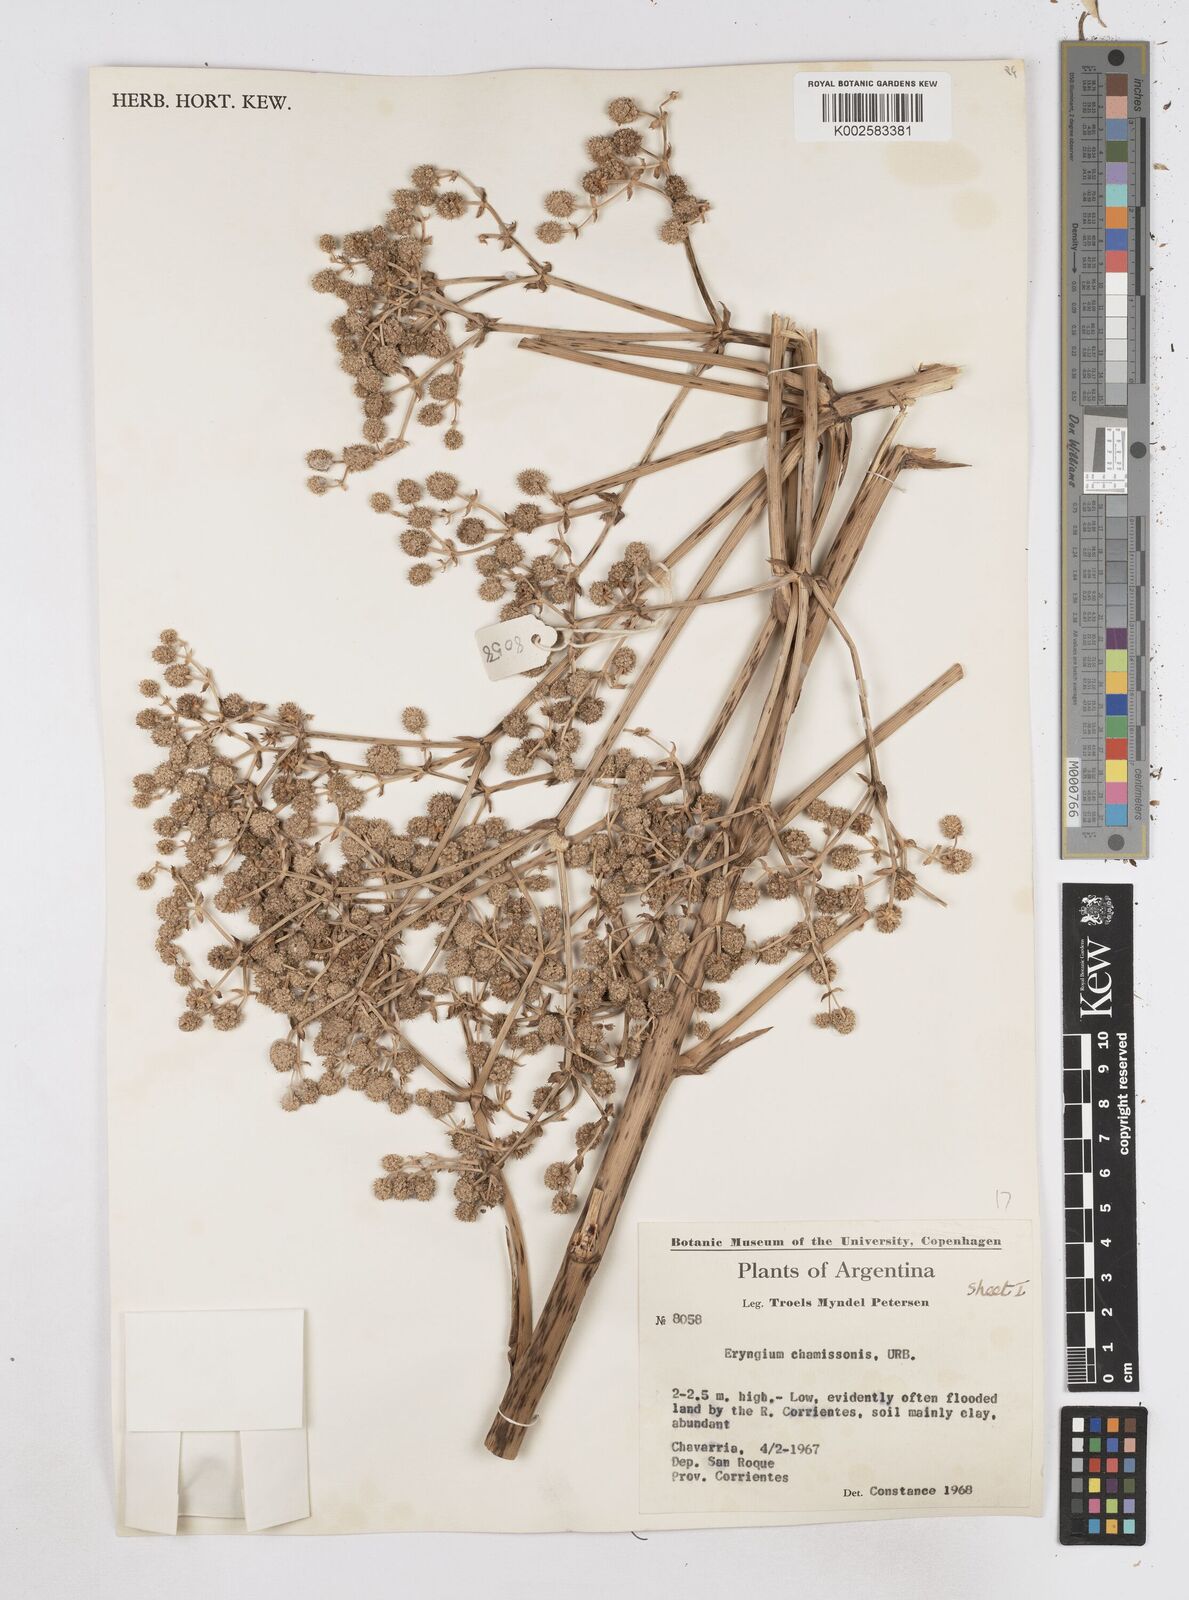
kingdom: Plantae
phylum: Tracheophyta
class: Magnoliopsida
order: Apiales
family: Apiaceae
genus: Eryngium
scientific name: Eryngium chamissonis
